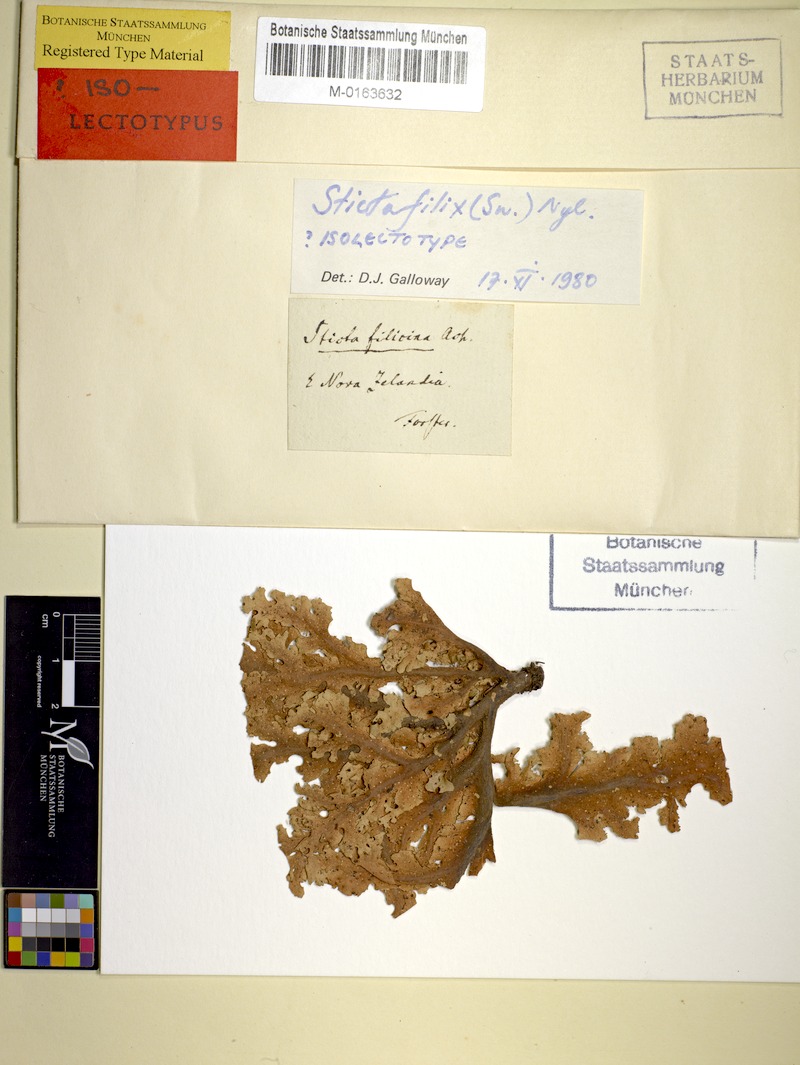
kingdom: Fungi
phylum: Ascomycota
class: Lecanoromycetes
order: Peltigerales
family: Lobariaceae
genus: Sticta
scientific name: Sticta filix
